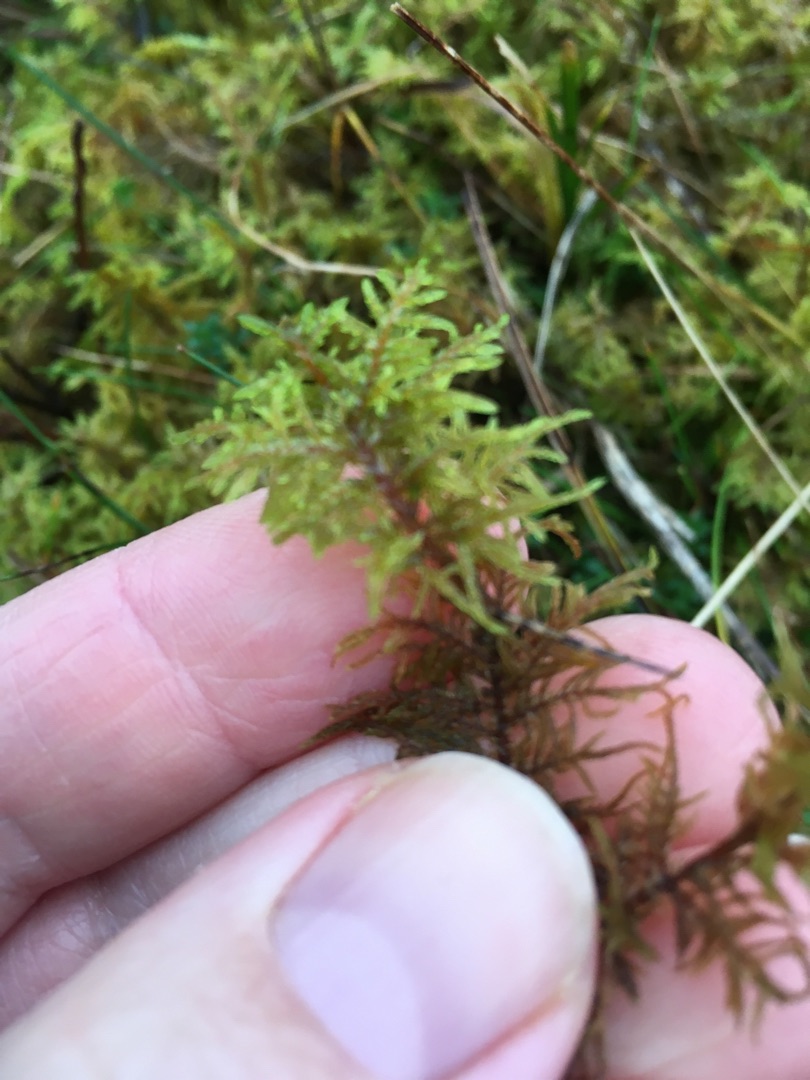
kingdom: Plantae
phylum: Bryophyta
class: Bryopsida
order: Hypnales
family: Hylocomiaceae
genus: Hylocomium
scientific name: Hylocomium splendens
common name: Almindelig etagemos
